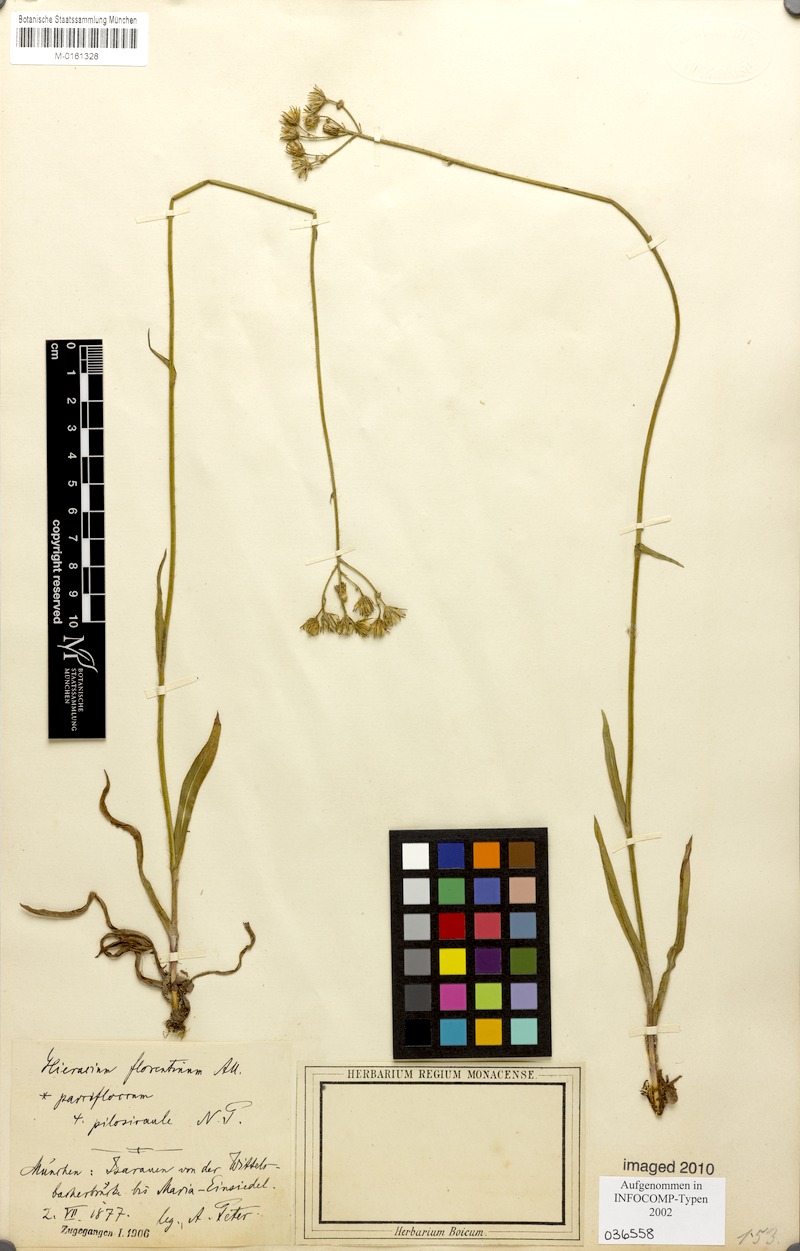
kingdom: Plantae
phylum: Tracheophyta
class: Magnoliopsida
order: Asterales
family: Asteraceae
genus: Pilosella
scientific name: Pilosella piloselloides
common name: Glaucous king-devil
